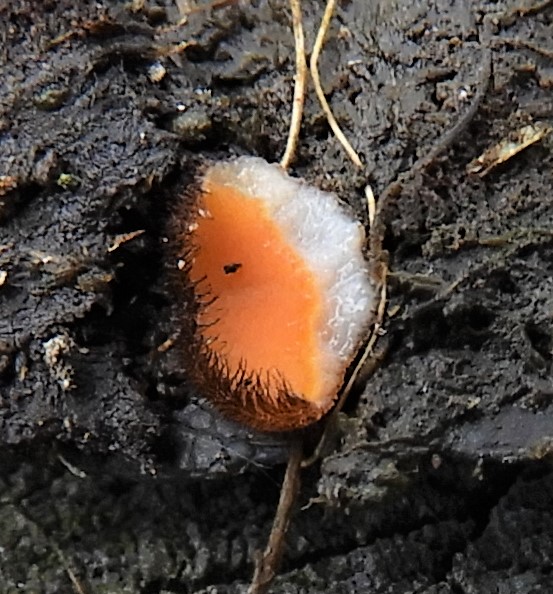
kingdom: Fungi
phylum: Ascomycota
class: Pezizomycetes
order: Pezizales
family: Pyronemataceae
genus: Scutellinia
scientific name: Scutellinia
